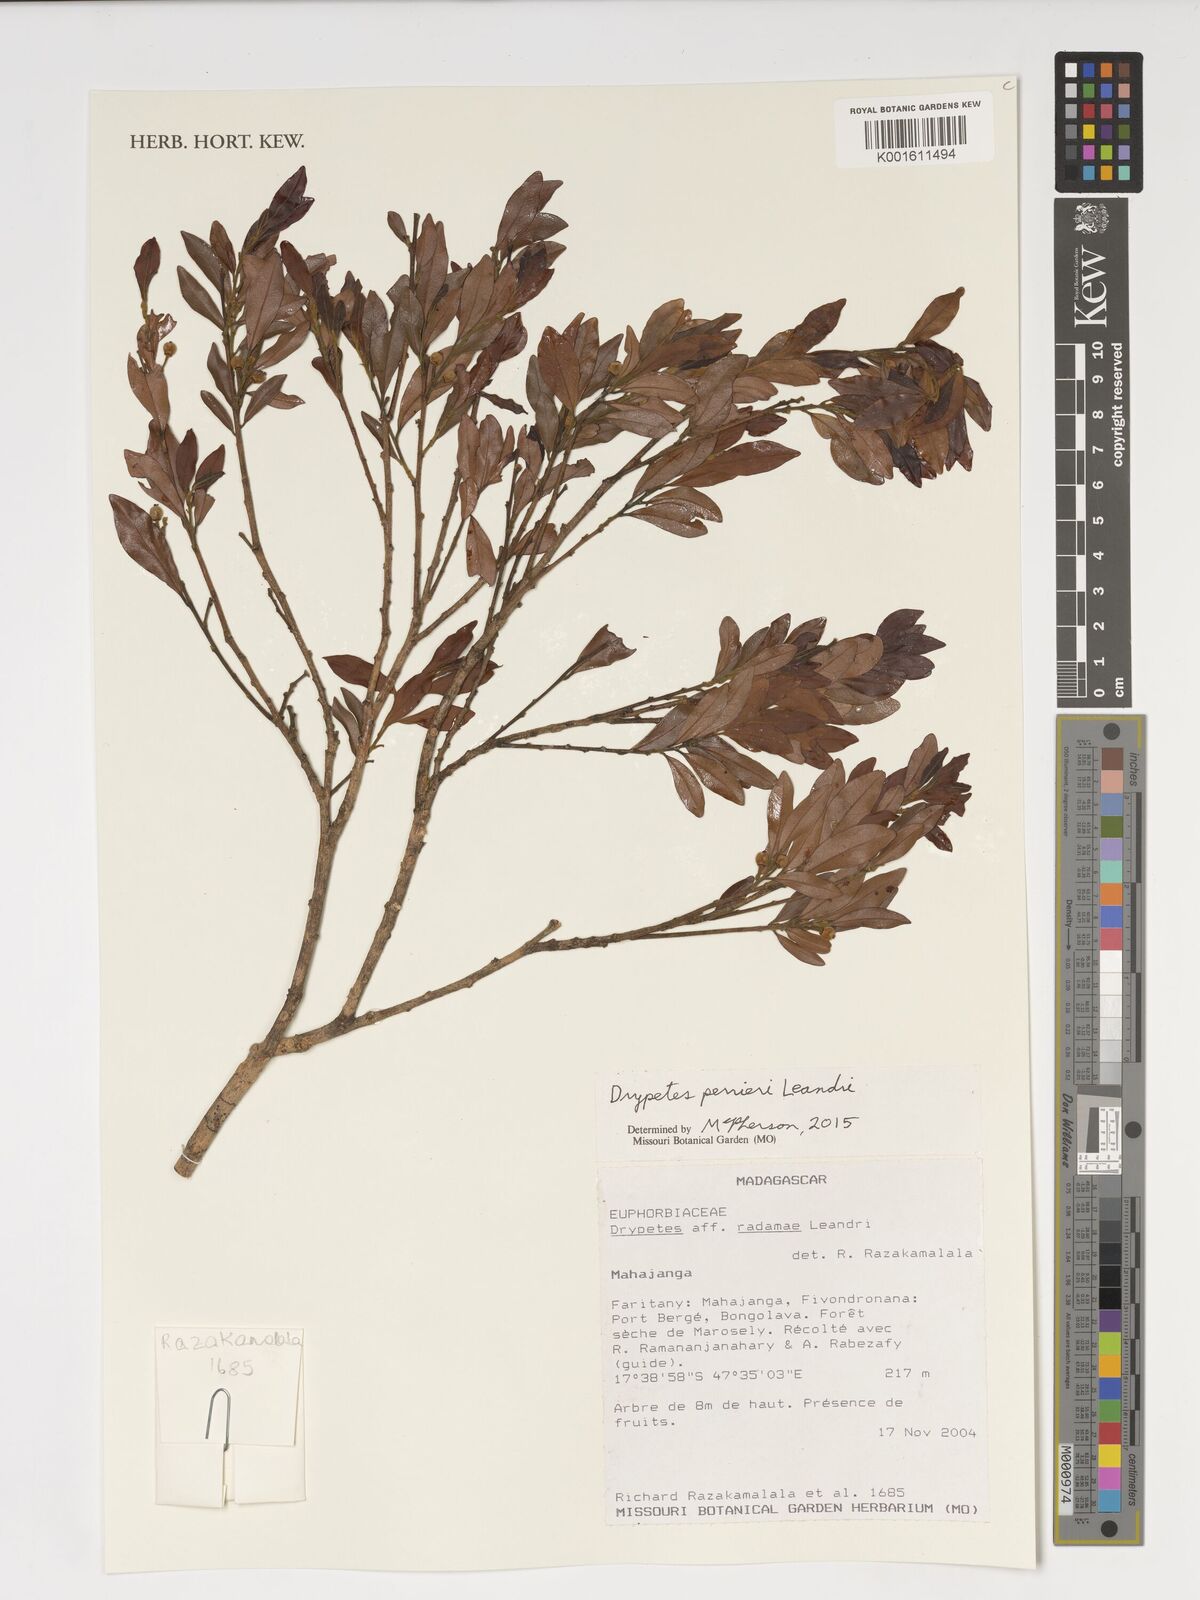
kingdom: Plantae
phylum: Tracheophyta
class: Magnoliopsida
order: Malpighiales
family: Putranjivaceae
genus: Drypetes
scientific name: Drypetes perrieri
